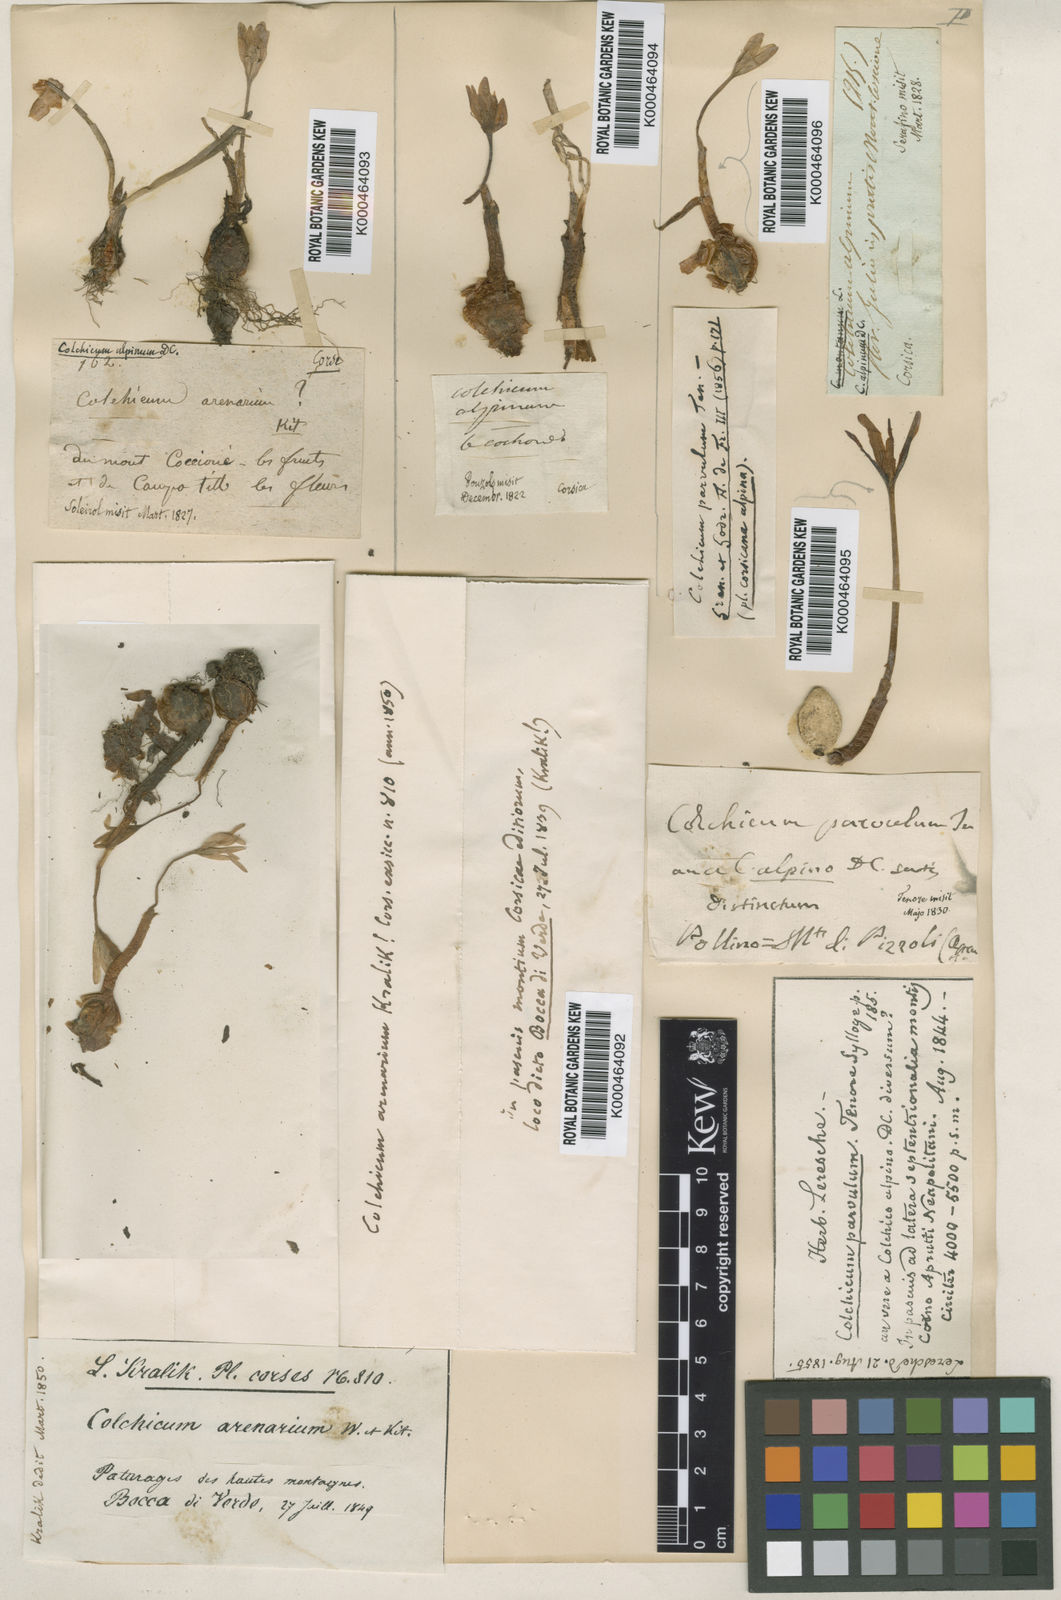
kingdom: Plantae
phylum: Tracheophyta
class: Liliopsida
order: Liliales
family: Colchicaceae
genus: Colchicum
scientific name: Colchicum alpinum
